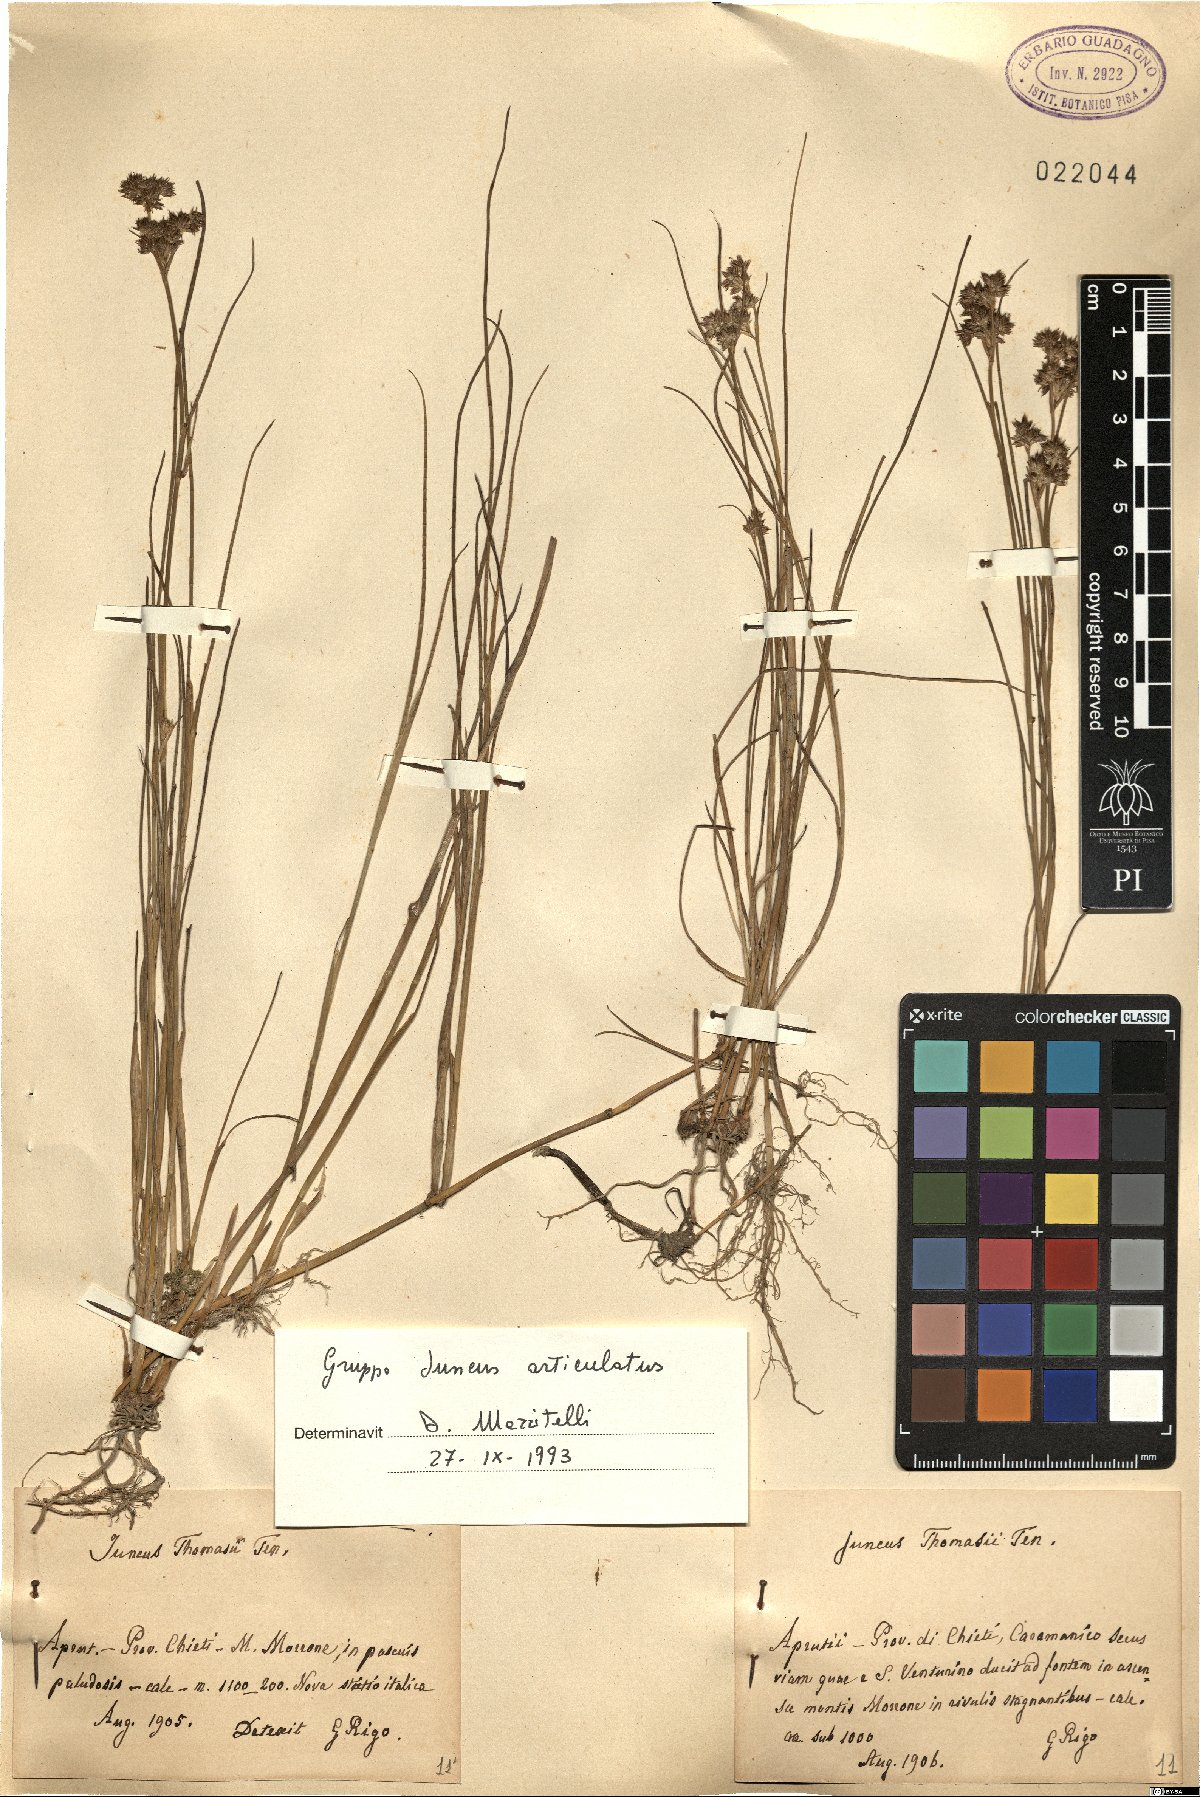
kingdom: Plantae
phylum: Tracheophyta
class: Liliopsida
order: Poales
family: Juncaceae
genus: Juncus
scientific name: Juncus articulatus
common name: Jointed rush
